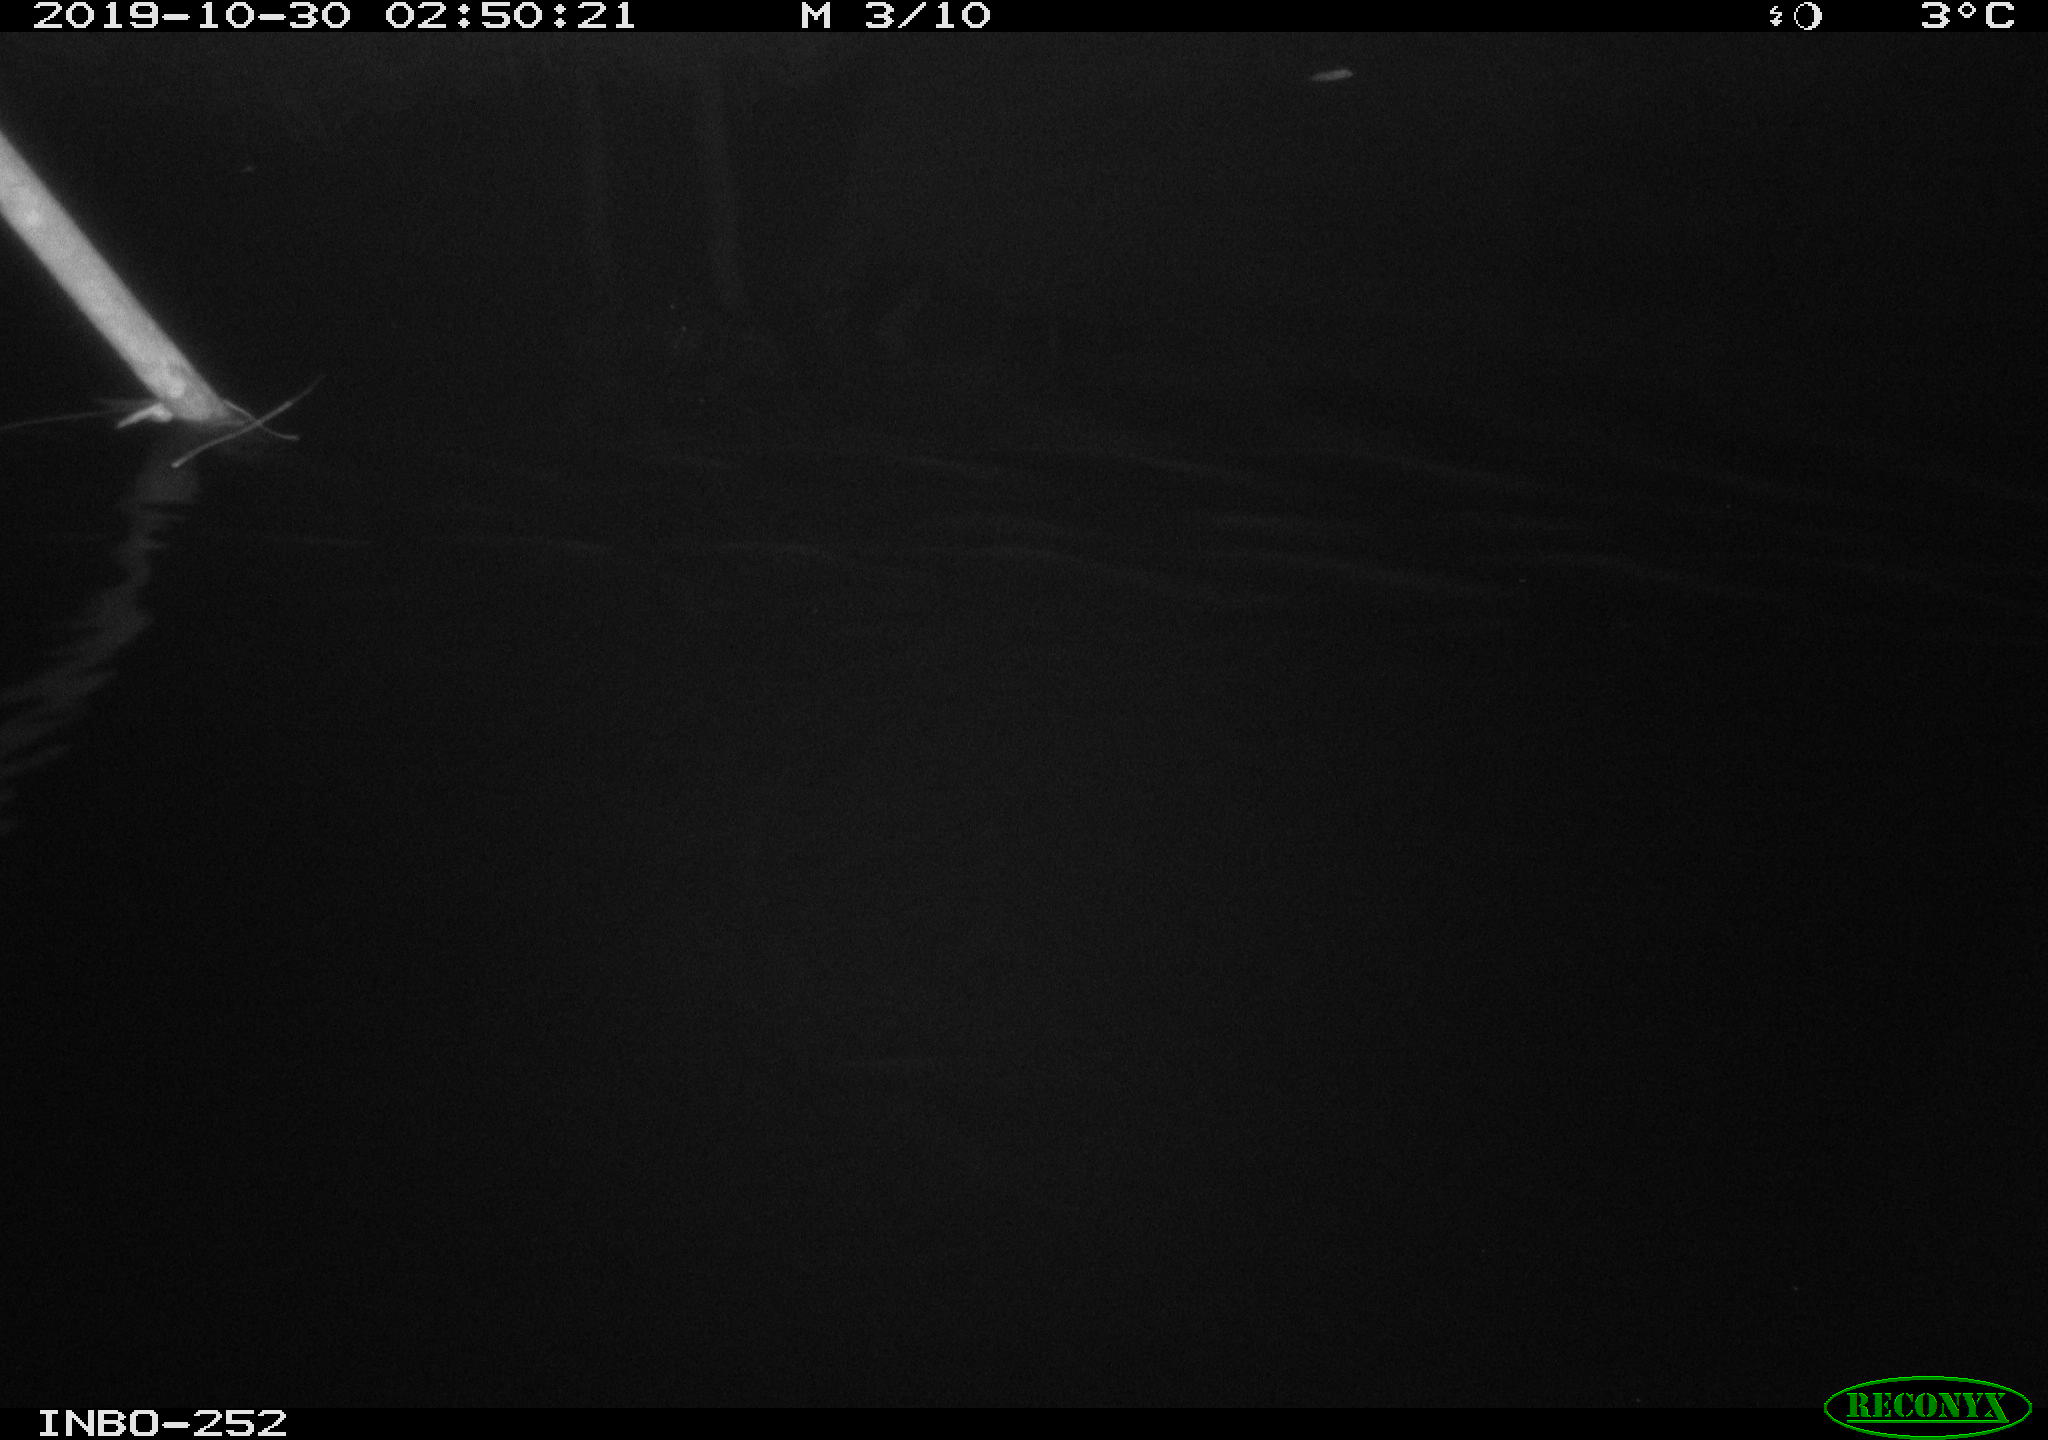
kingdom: Animalia
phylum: Chordata
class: Aves
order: Anseriformes
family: Anatidae
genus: Anas
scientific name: Anas platyrhynchos
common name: Mallard
